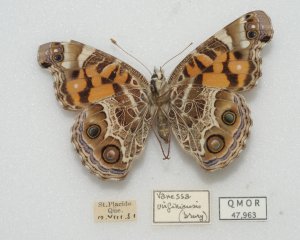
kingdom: Animalia
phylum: Arthropoda
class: Insecta
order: Lepidoptera
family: Nymphalidae
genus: Vanessa
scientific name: Vanessa virginiensis
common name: American Lady
